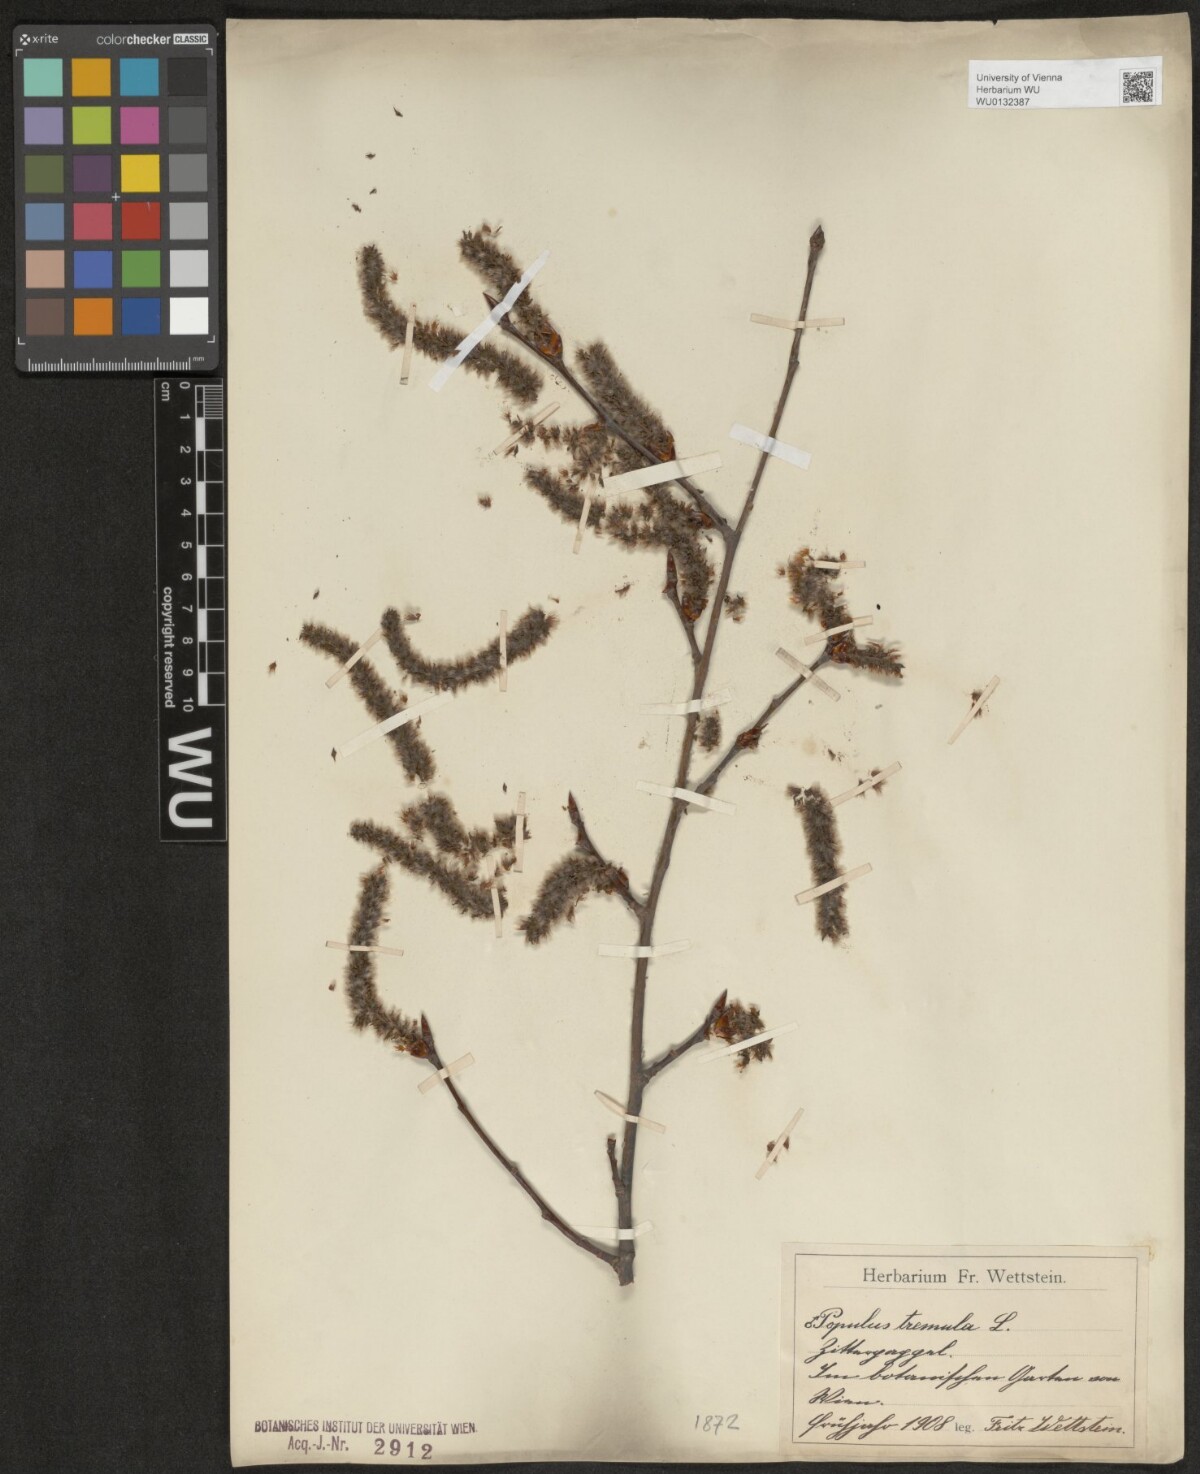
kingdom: Plantae
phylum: Tracheophyta
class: Magnoliopsida
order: Malpighiales
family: Salicaceae
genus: Populus
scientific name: Populus tremula
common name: European aspen
